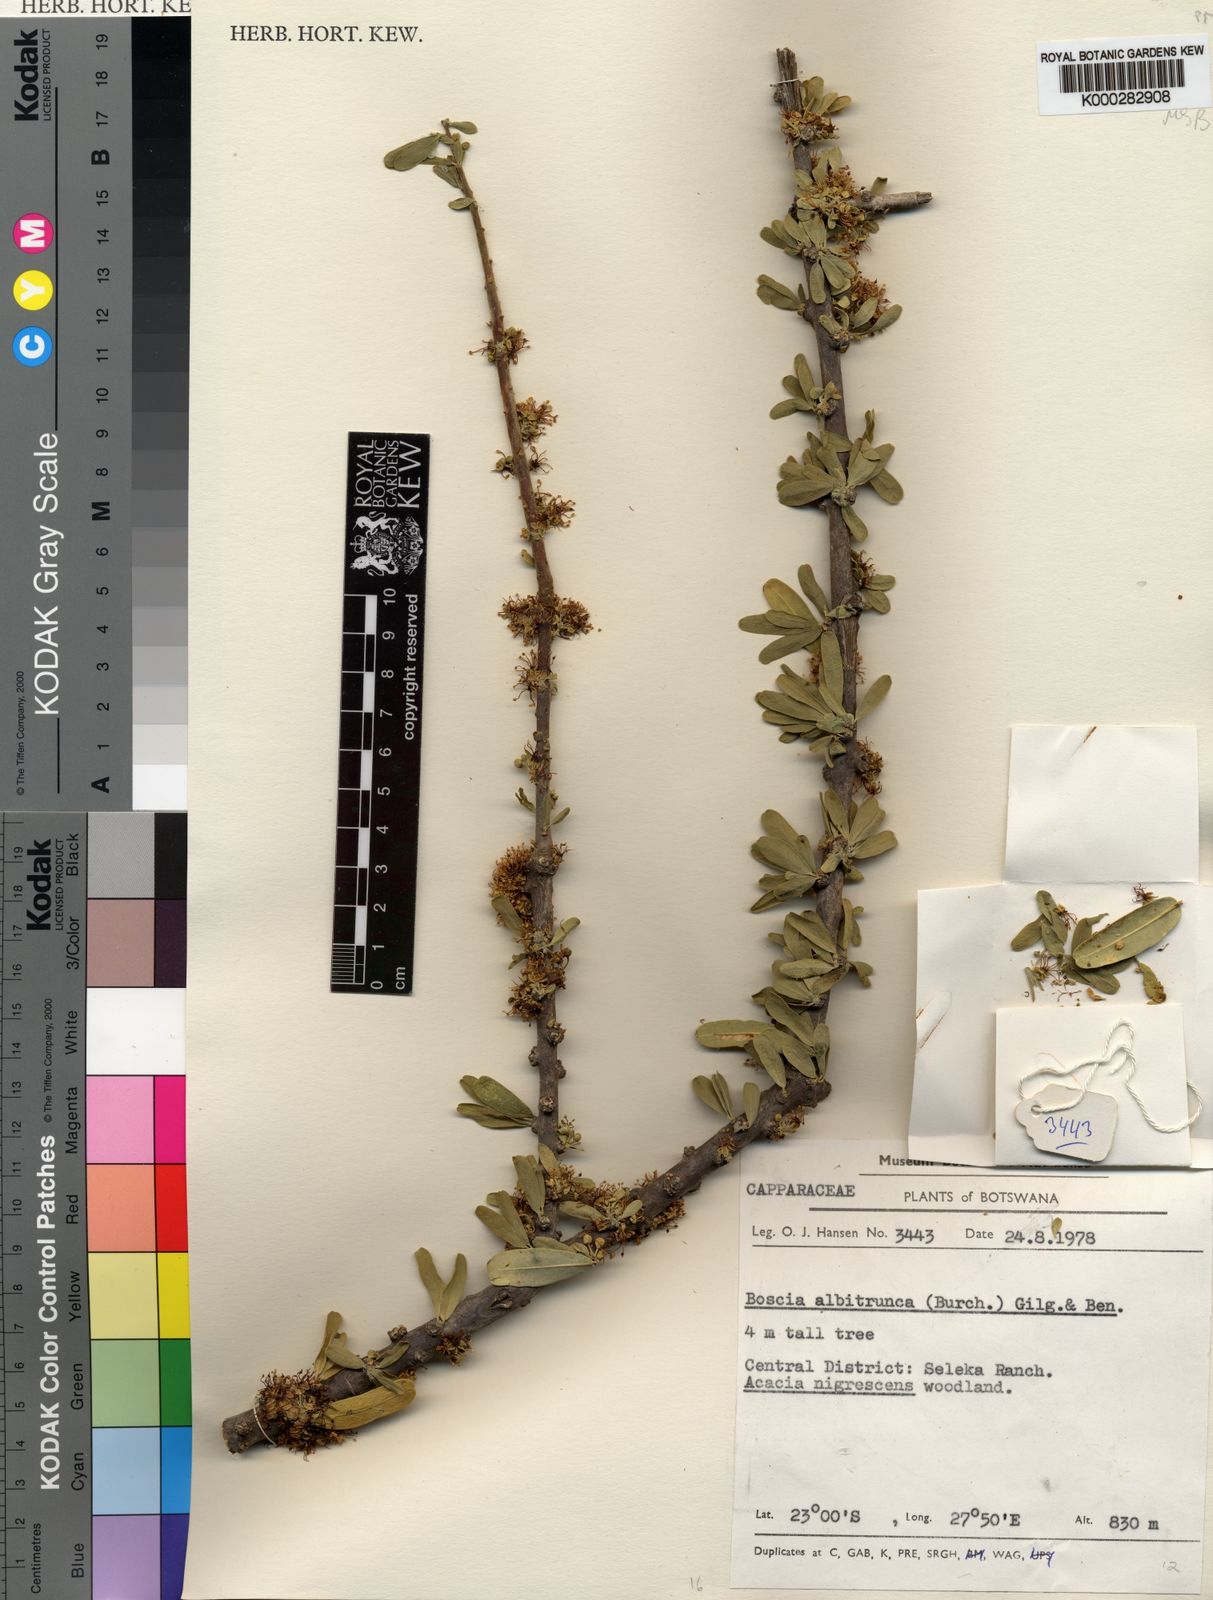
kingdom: Plantae
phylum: Tracheophyta
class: Magnoliopsida
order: Brassicales
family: Capparaceae
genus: Boscia
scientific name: Boscia albitrunca
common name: Caper bush
